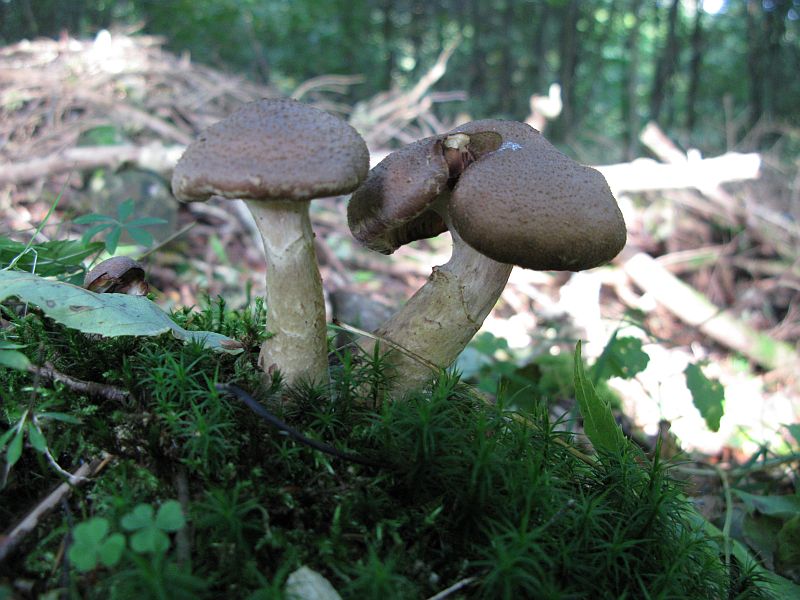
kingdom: Fungi
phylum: Basidiomycota
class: Agaricomycetes
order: Agaricales
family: Physalacriaceae
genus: Armillaria
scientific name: Armillaria lutea
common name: køllestokket honningsvamp
